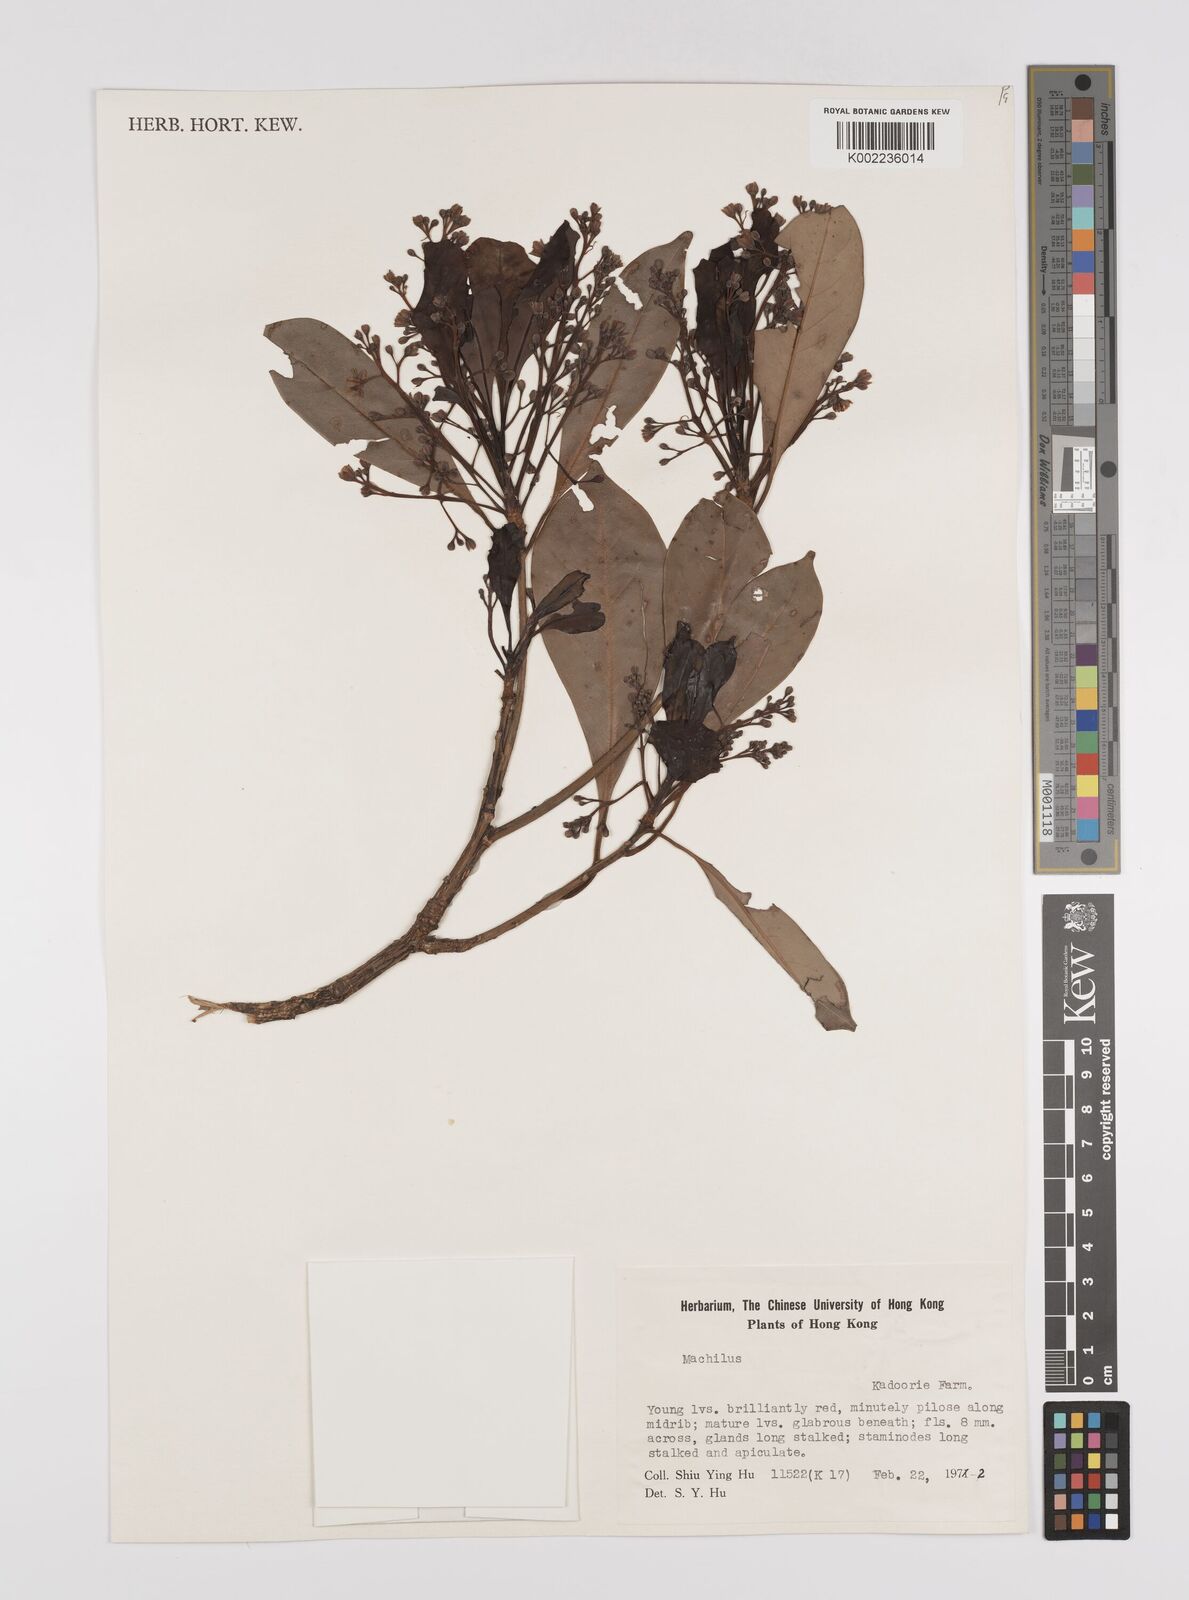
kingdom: Plantae
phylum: Tracheophyta
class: Magnoliopsida
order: Laurales
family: Lauraceae
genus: Persea
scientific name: Persea
